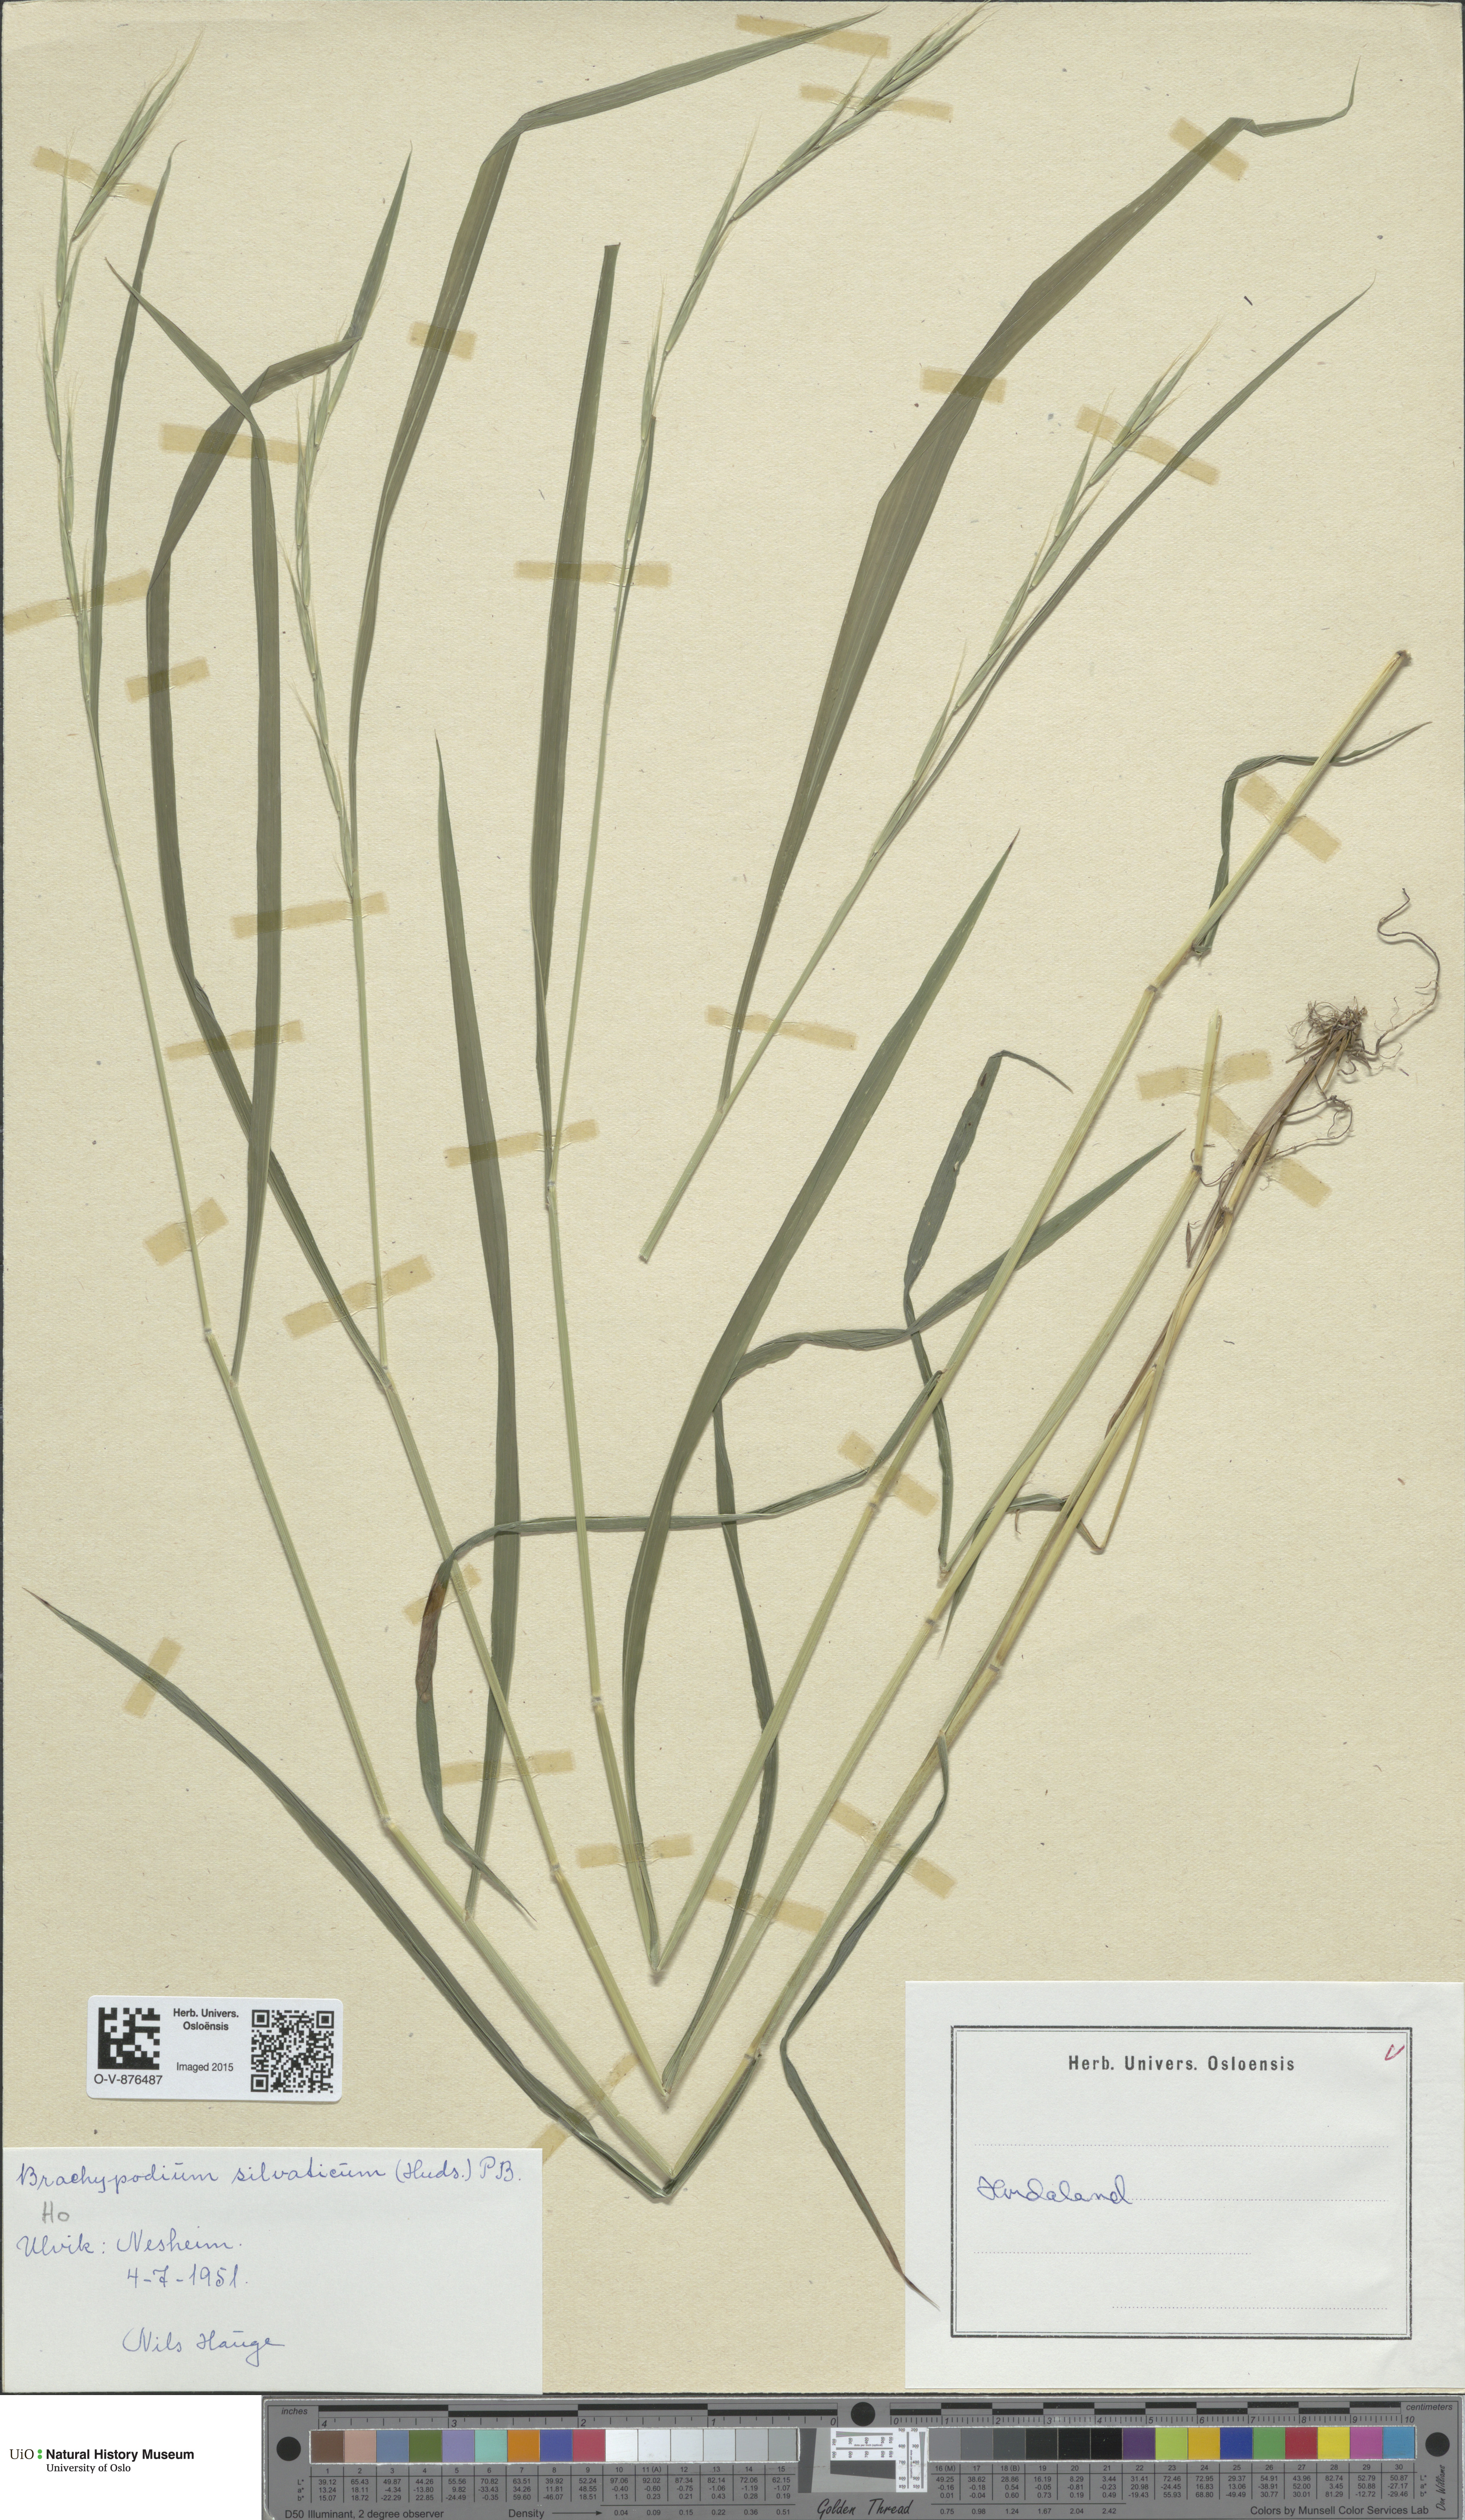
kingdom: Plantae
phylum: Tracheophyta
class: Liliopsida
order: Poales
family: Poaceae
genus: Brachypodium
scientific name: Brachypodium sylvaticum
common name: False-brome
